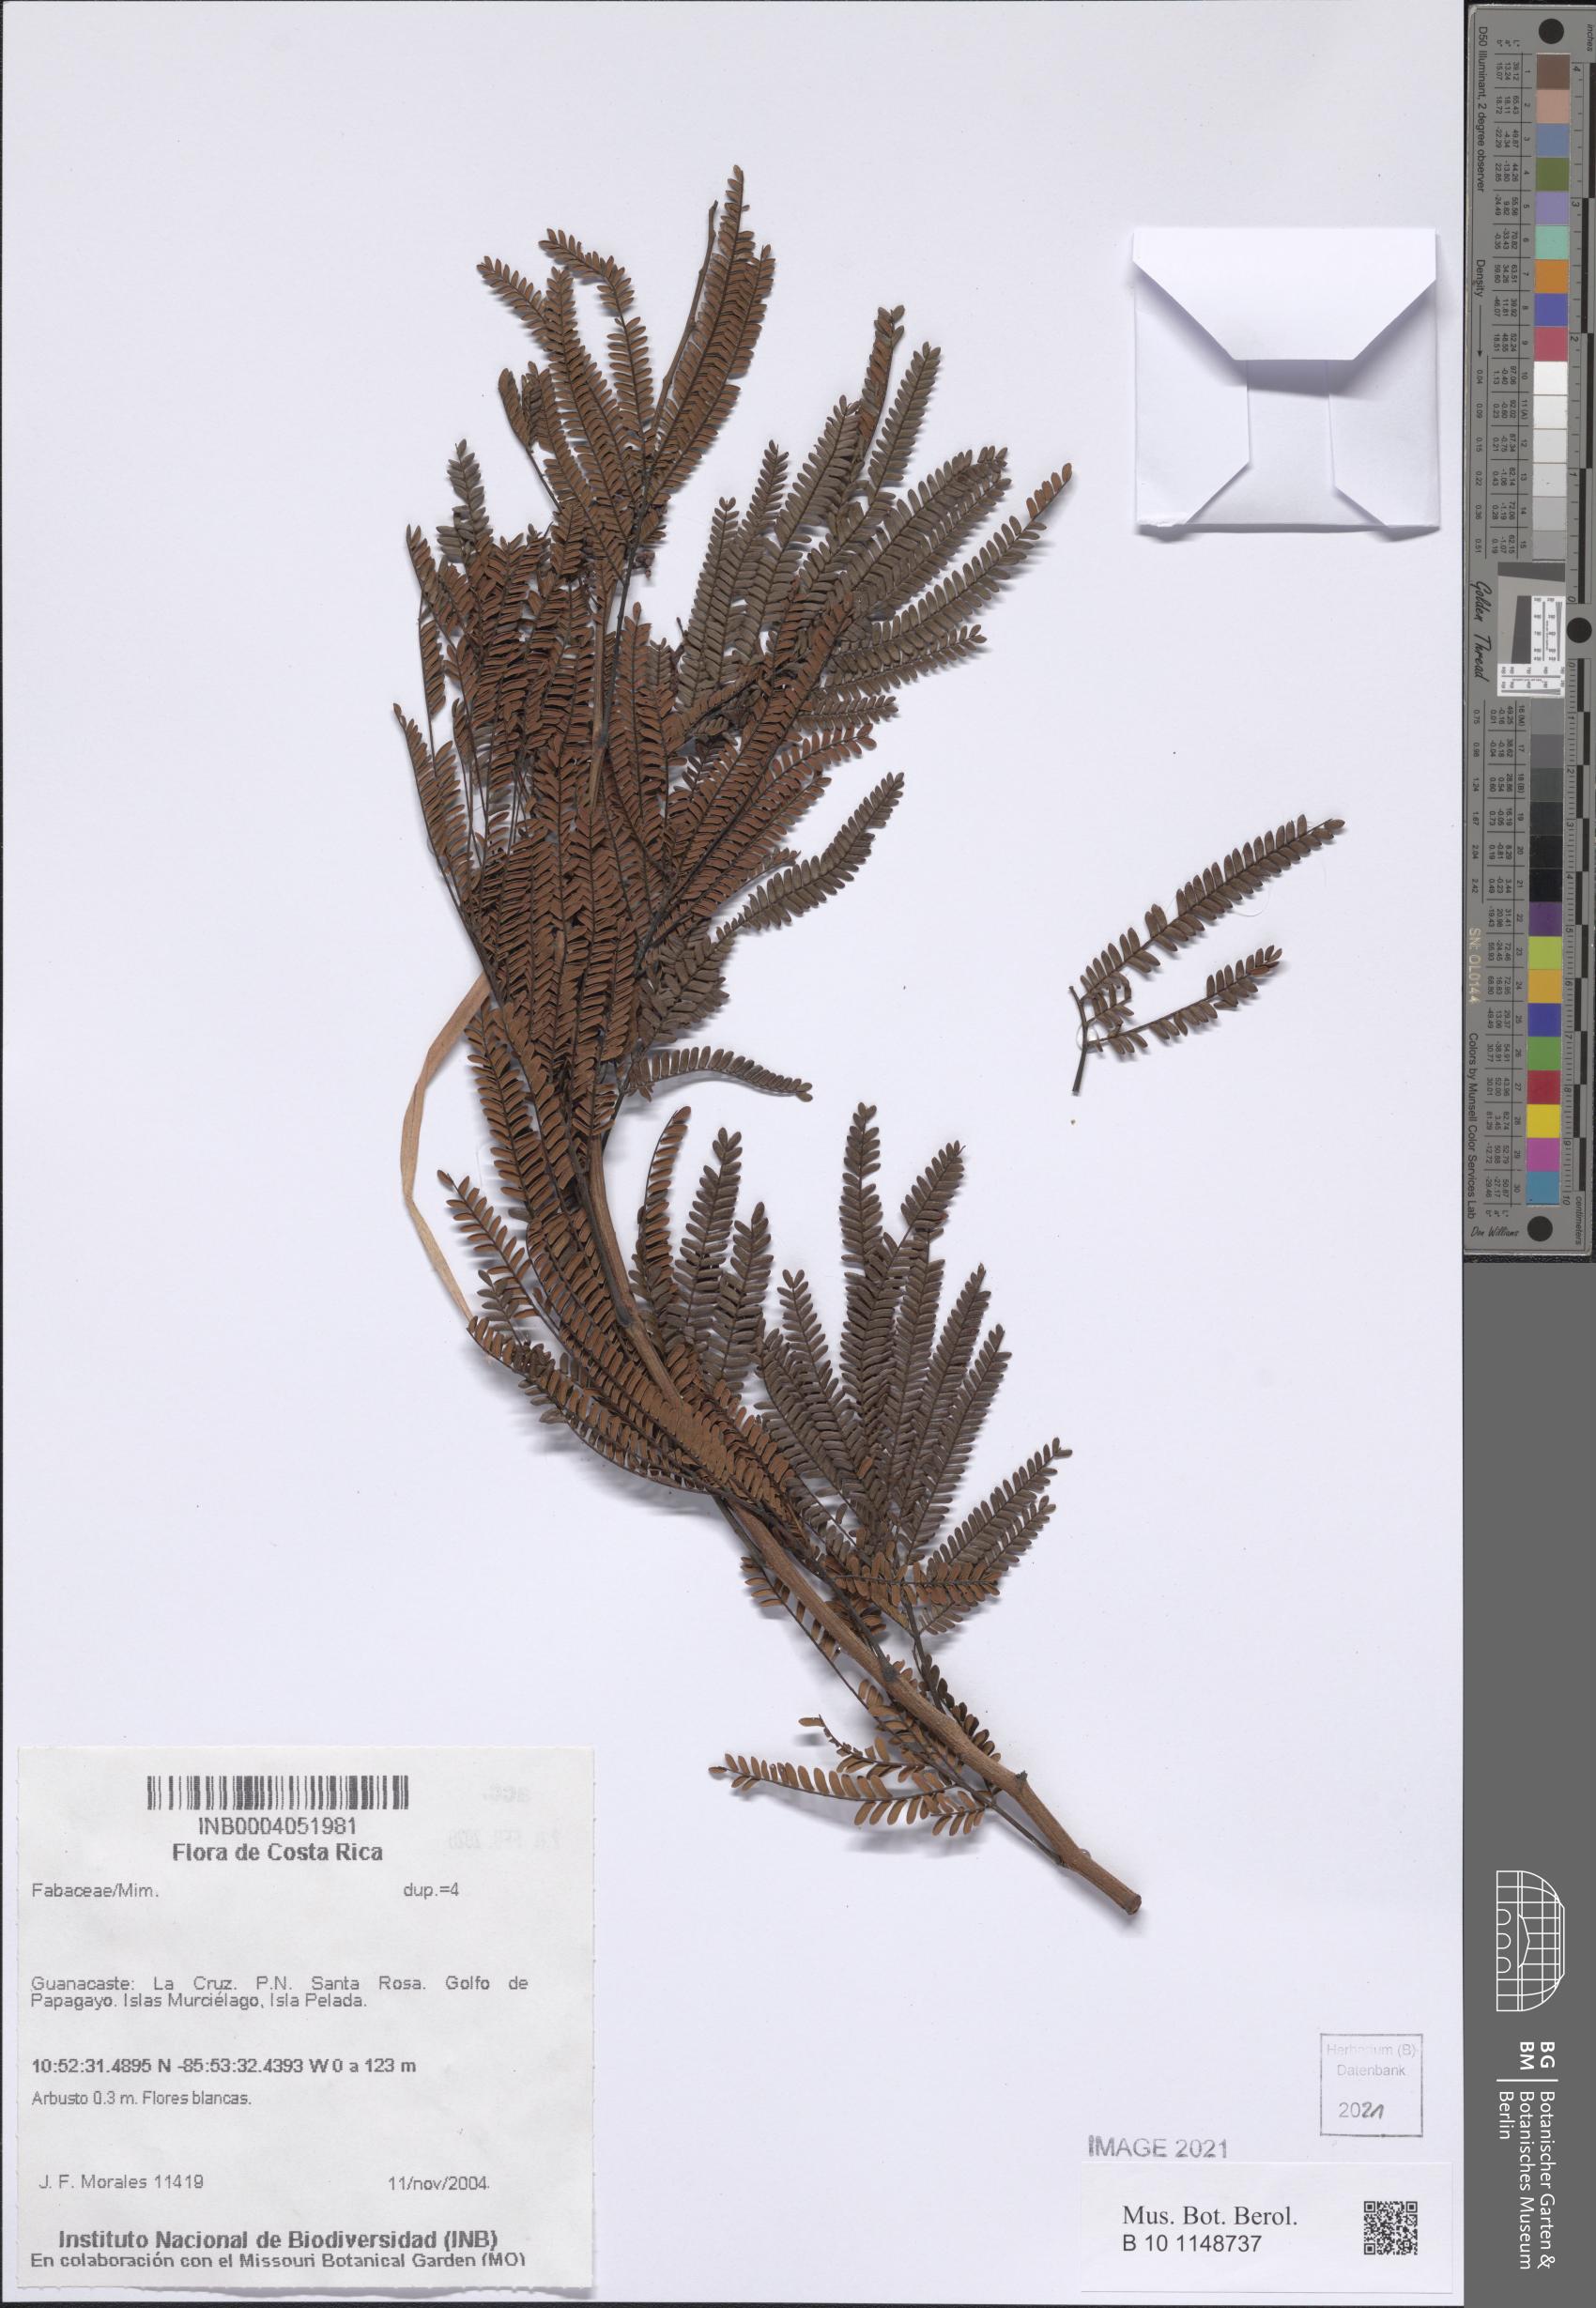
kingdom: Plantae
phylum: Tracheophyta
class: Magnoliopsida
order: Fabales
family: Fabaceae
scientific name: Fabaceae
